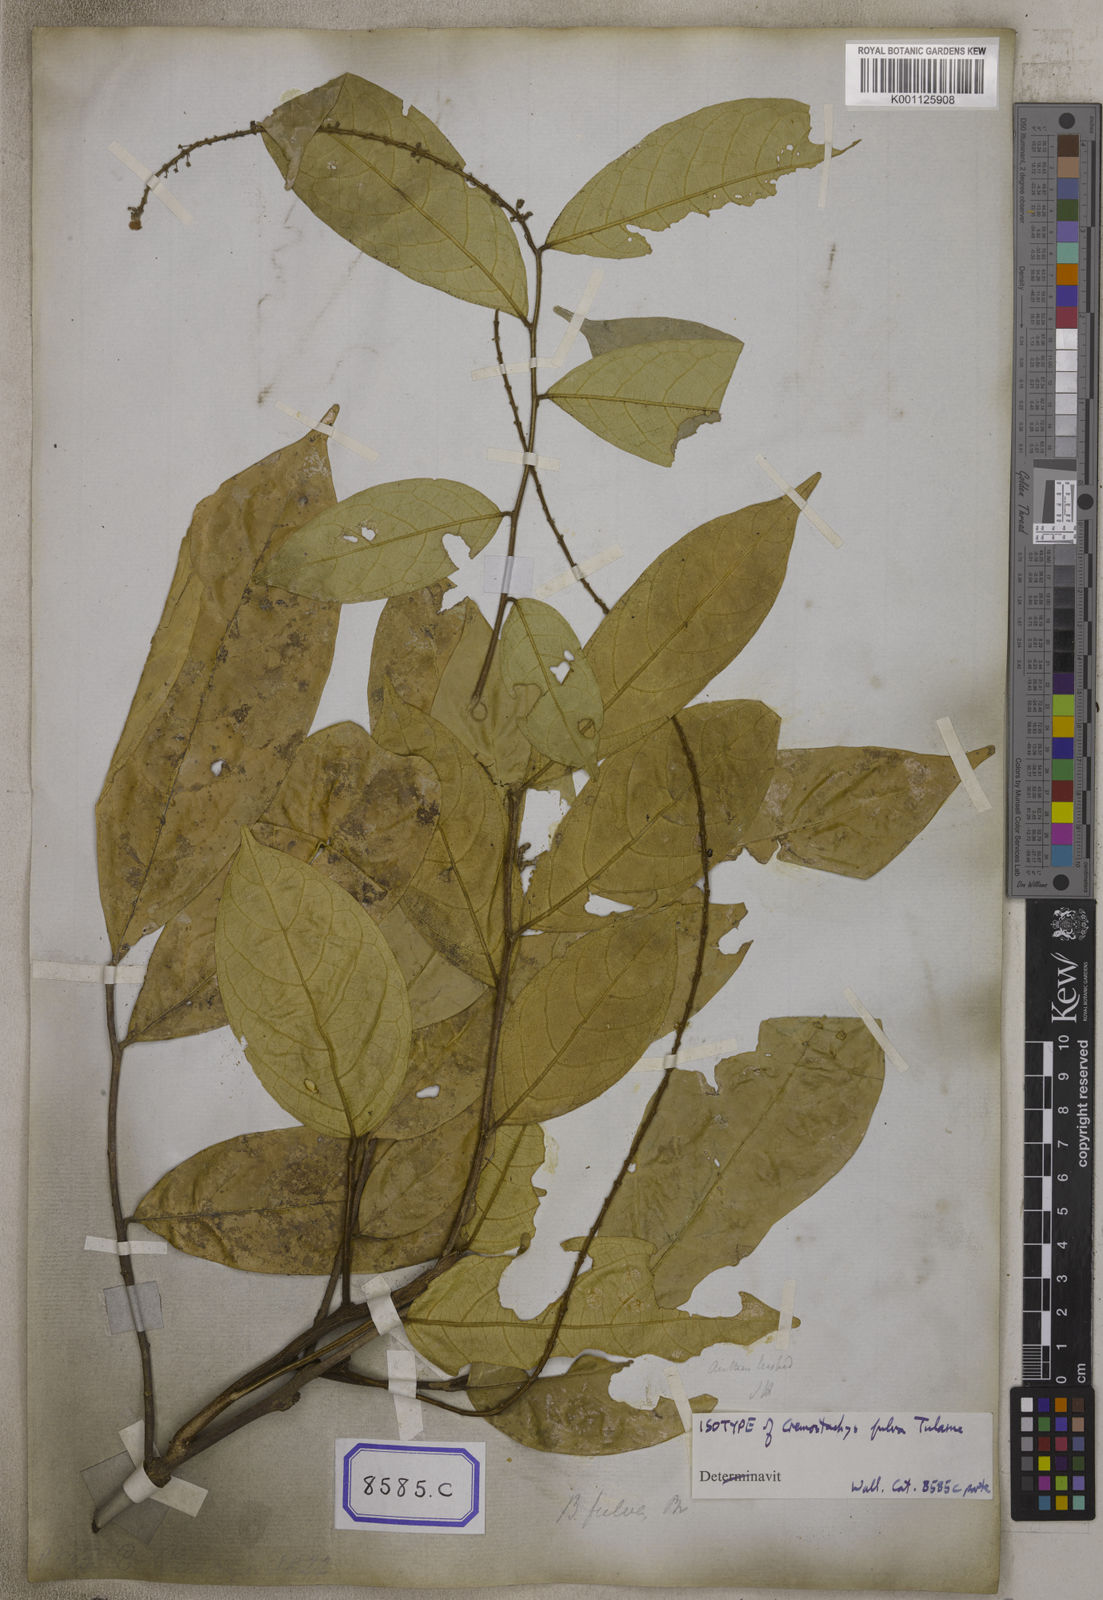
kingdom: Plantae
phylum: Tracheophyta
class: Magnoliopsida
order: Malpighiales
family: Pandaceae
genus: Galearia
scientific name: Galearia
